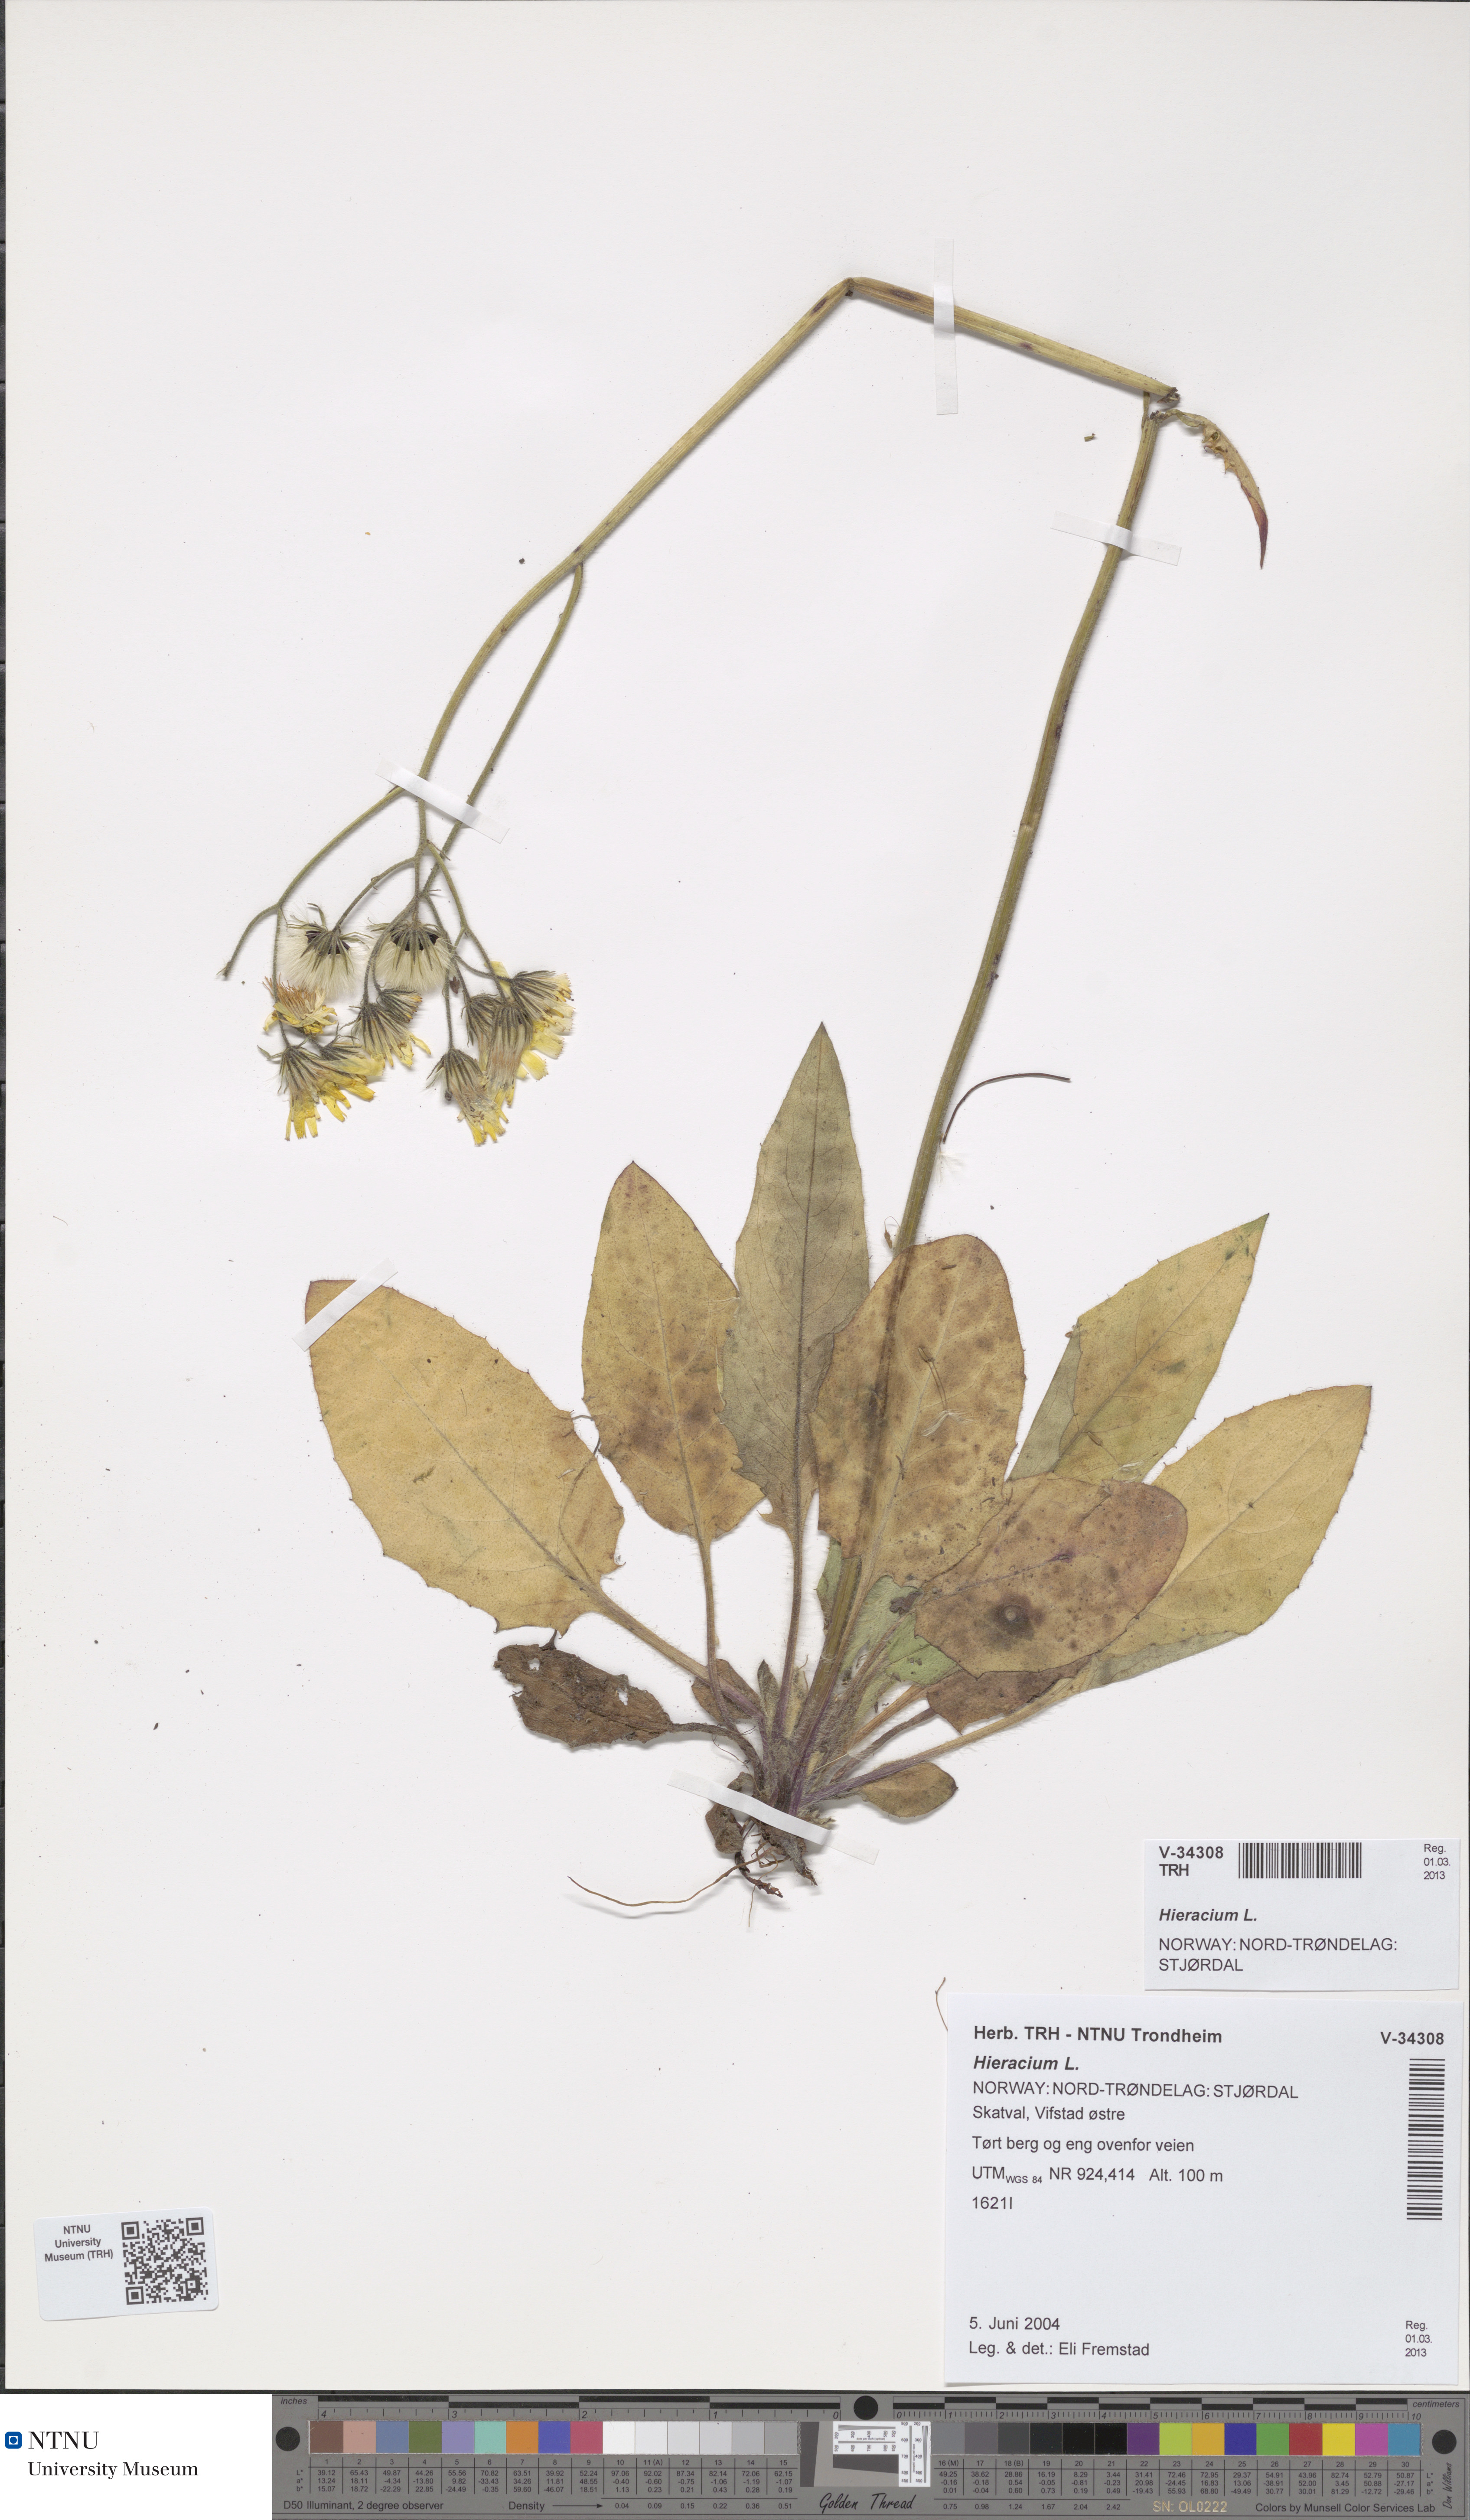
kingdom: Plantae
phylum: Tracheophyta
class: Magnoliopsida
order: Asterales
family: Asteraceae
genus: Hieracium
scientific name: Hieracium
